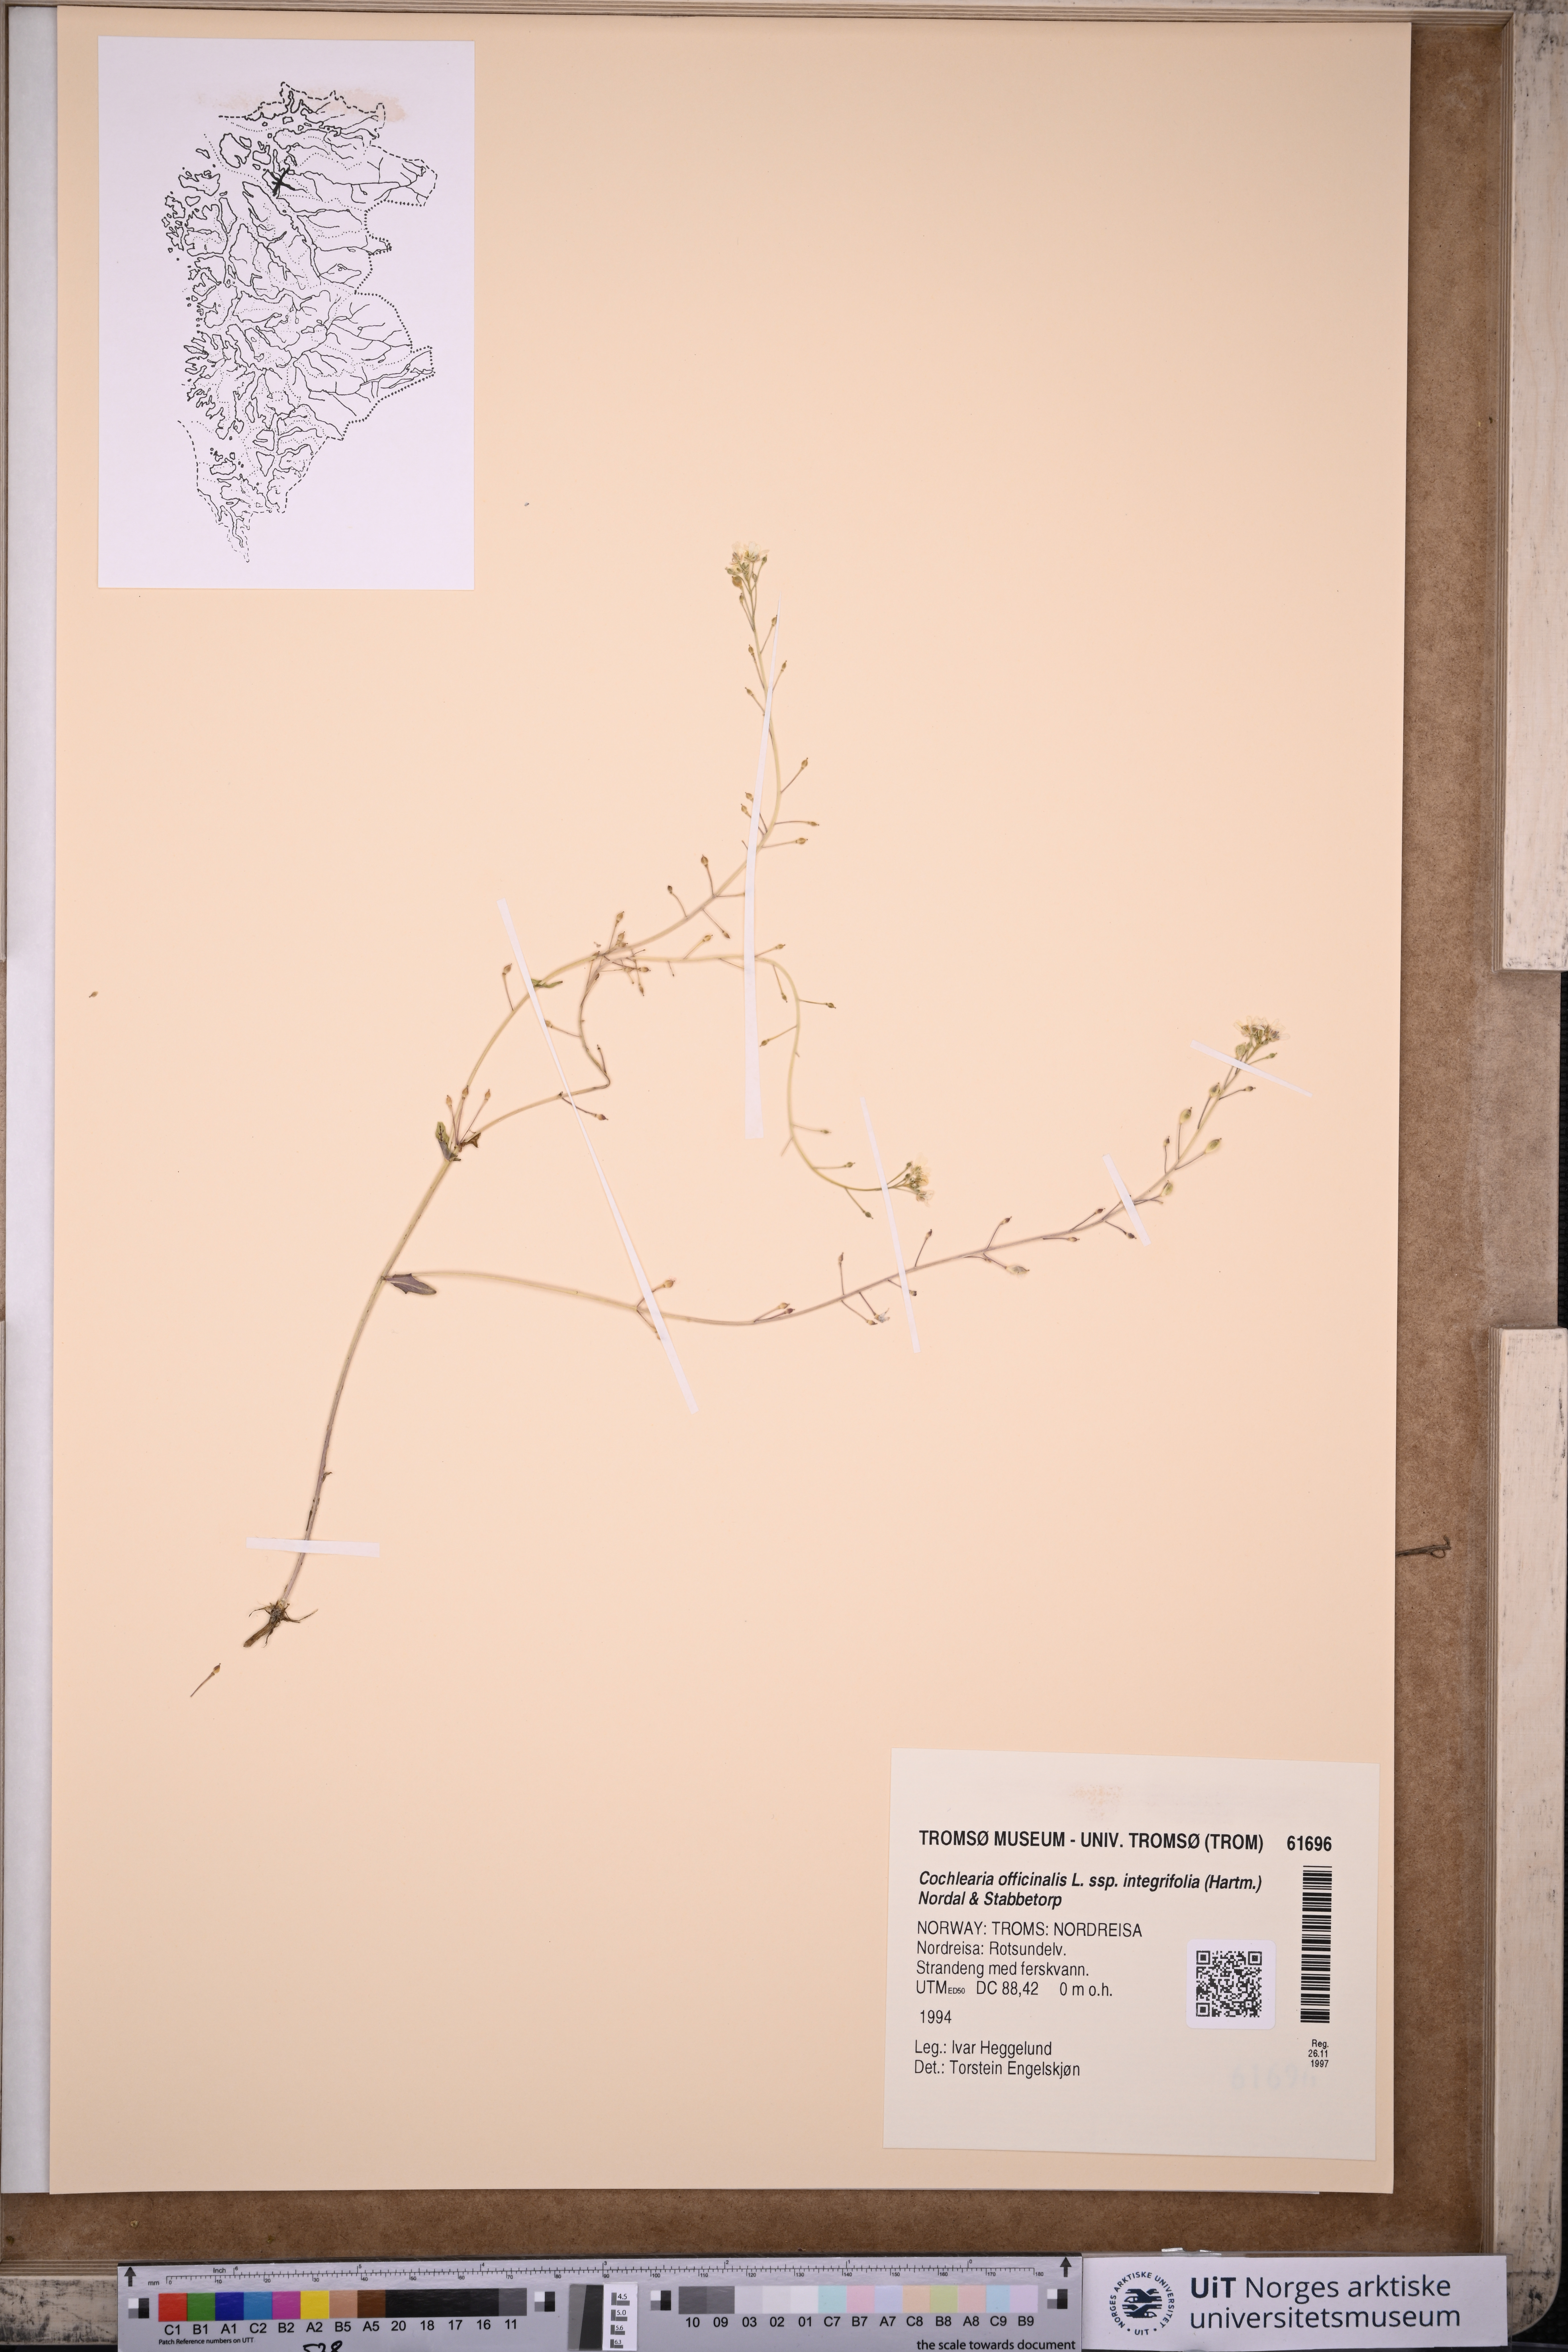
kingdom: Plantae
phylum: Tracheophyta
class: Magnoliopsida
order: Brassicales
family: Brassicaceae
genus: Cochlearia
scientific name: Cochlearia officinalis
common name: Scurvy-grass
